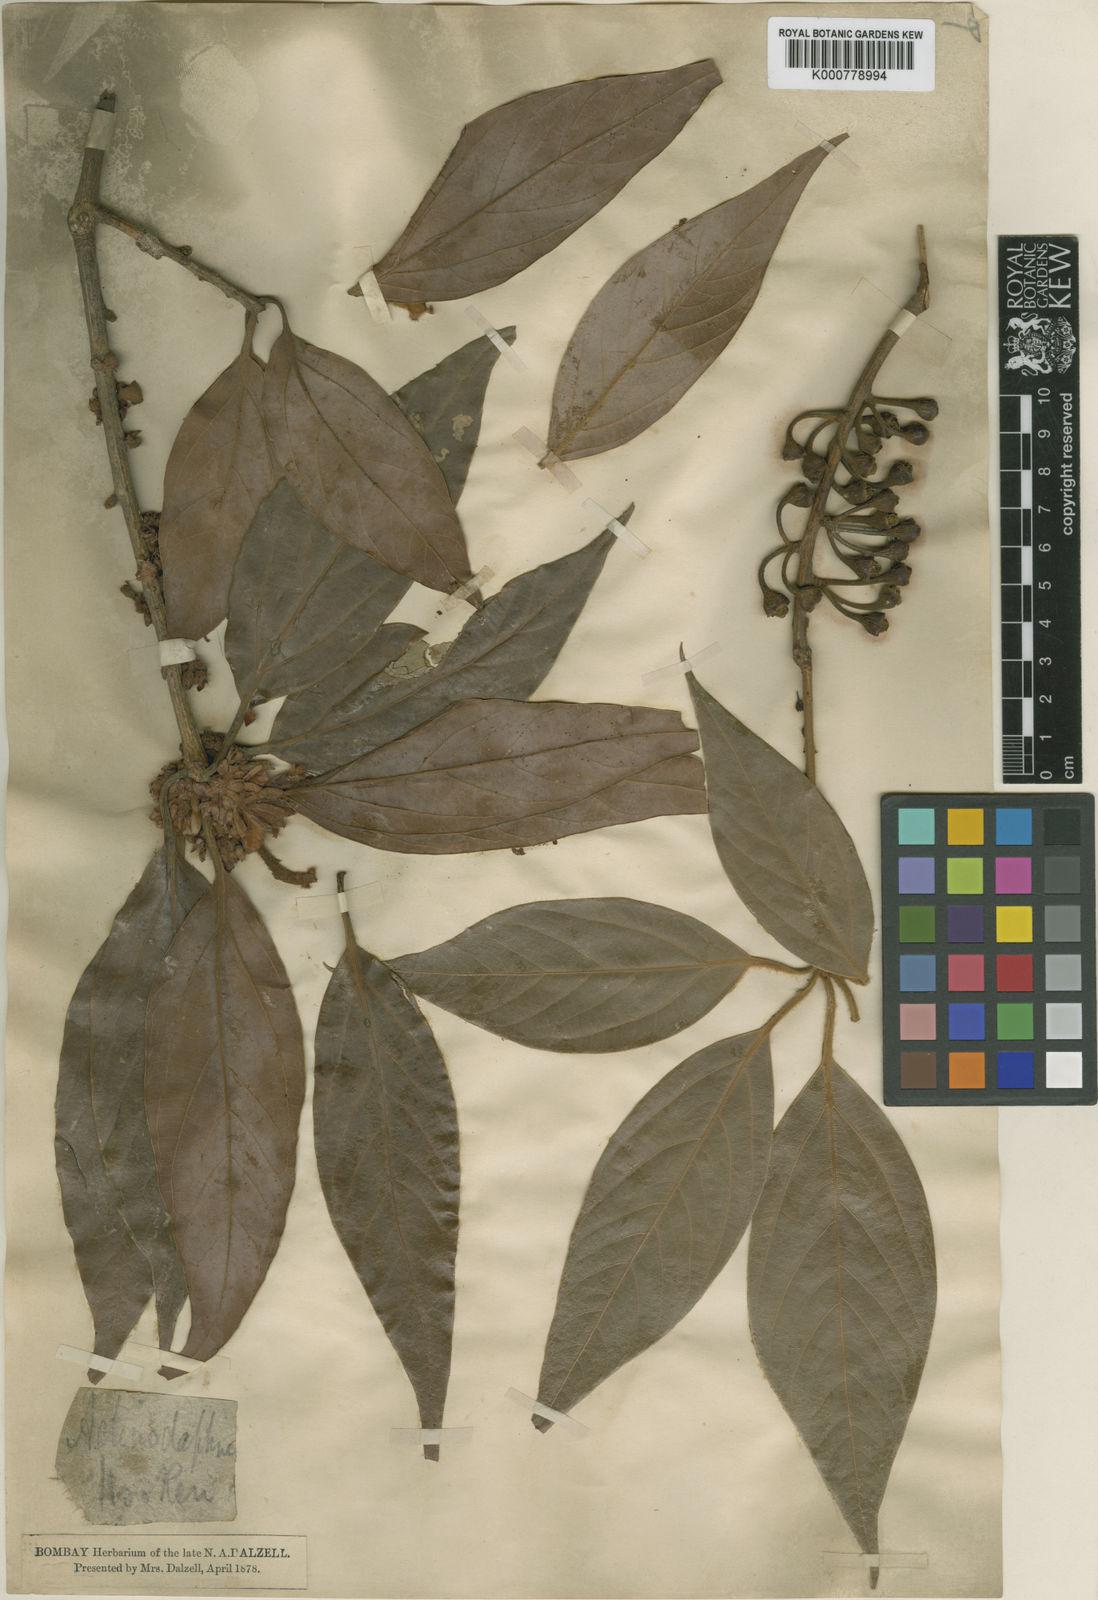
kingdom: Plantae
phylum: Tracheophyta
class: Magnoliopsida
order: Laurales
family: Lauraceae
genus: Actinodaphne
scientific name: Actinodaphne lanceolata
